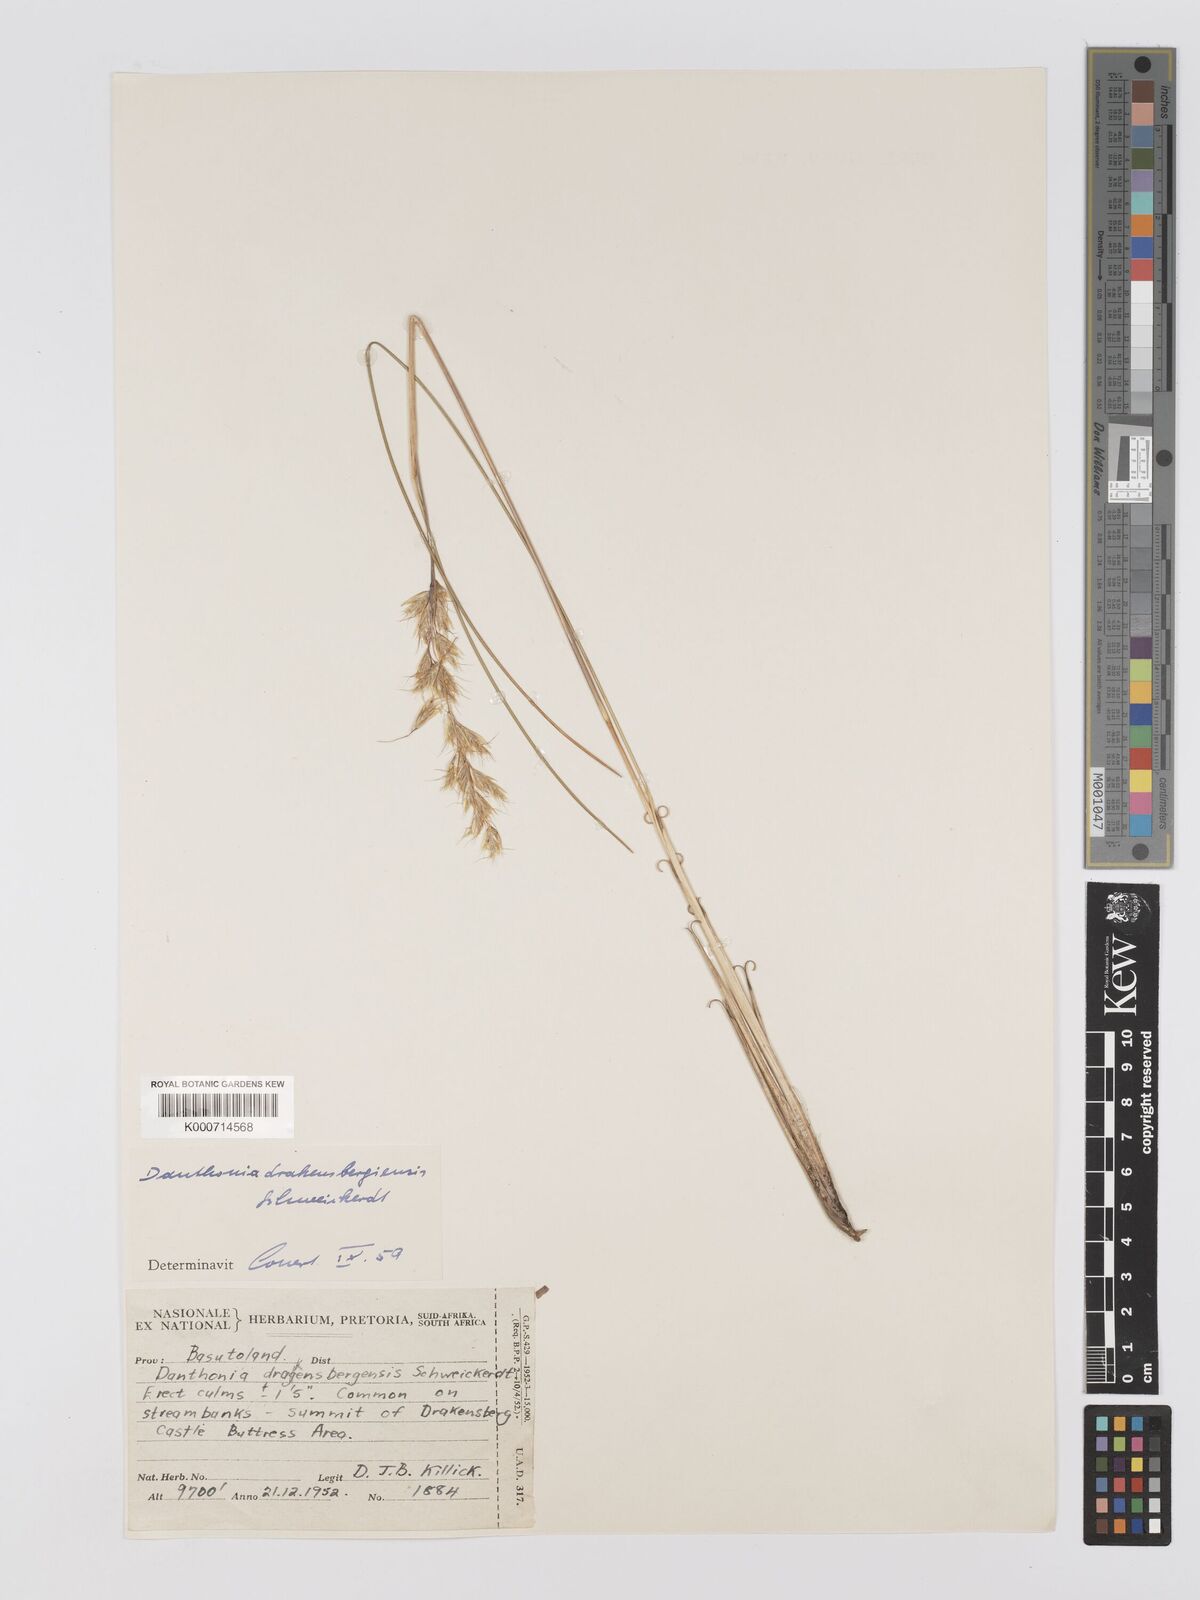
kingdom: Plantae
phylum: Tracheophyta
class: Liliopsida
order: Poales
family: Poaceae
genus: Rytidosperma
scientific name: Rytidosperma
